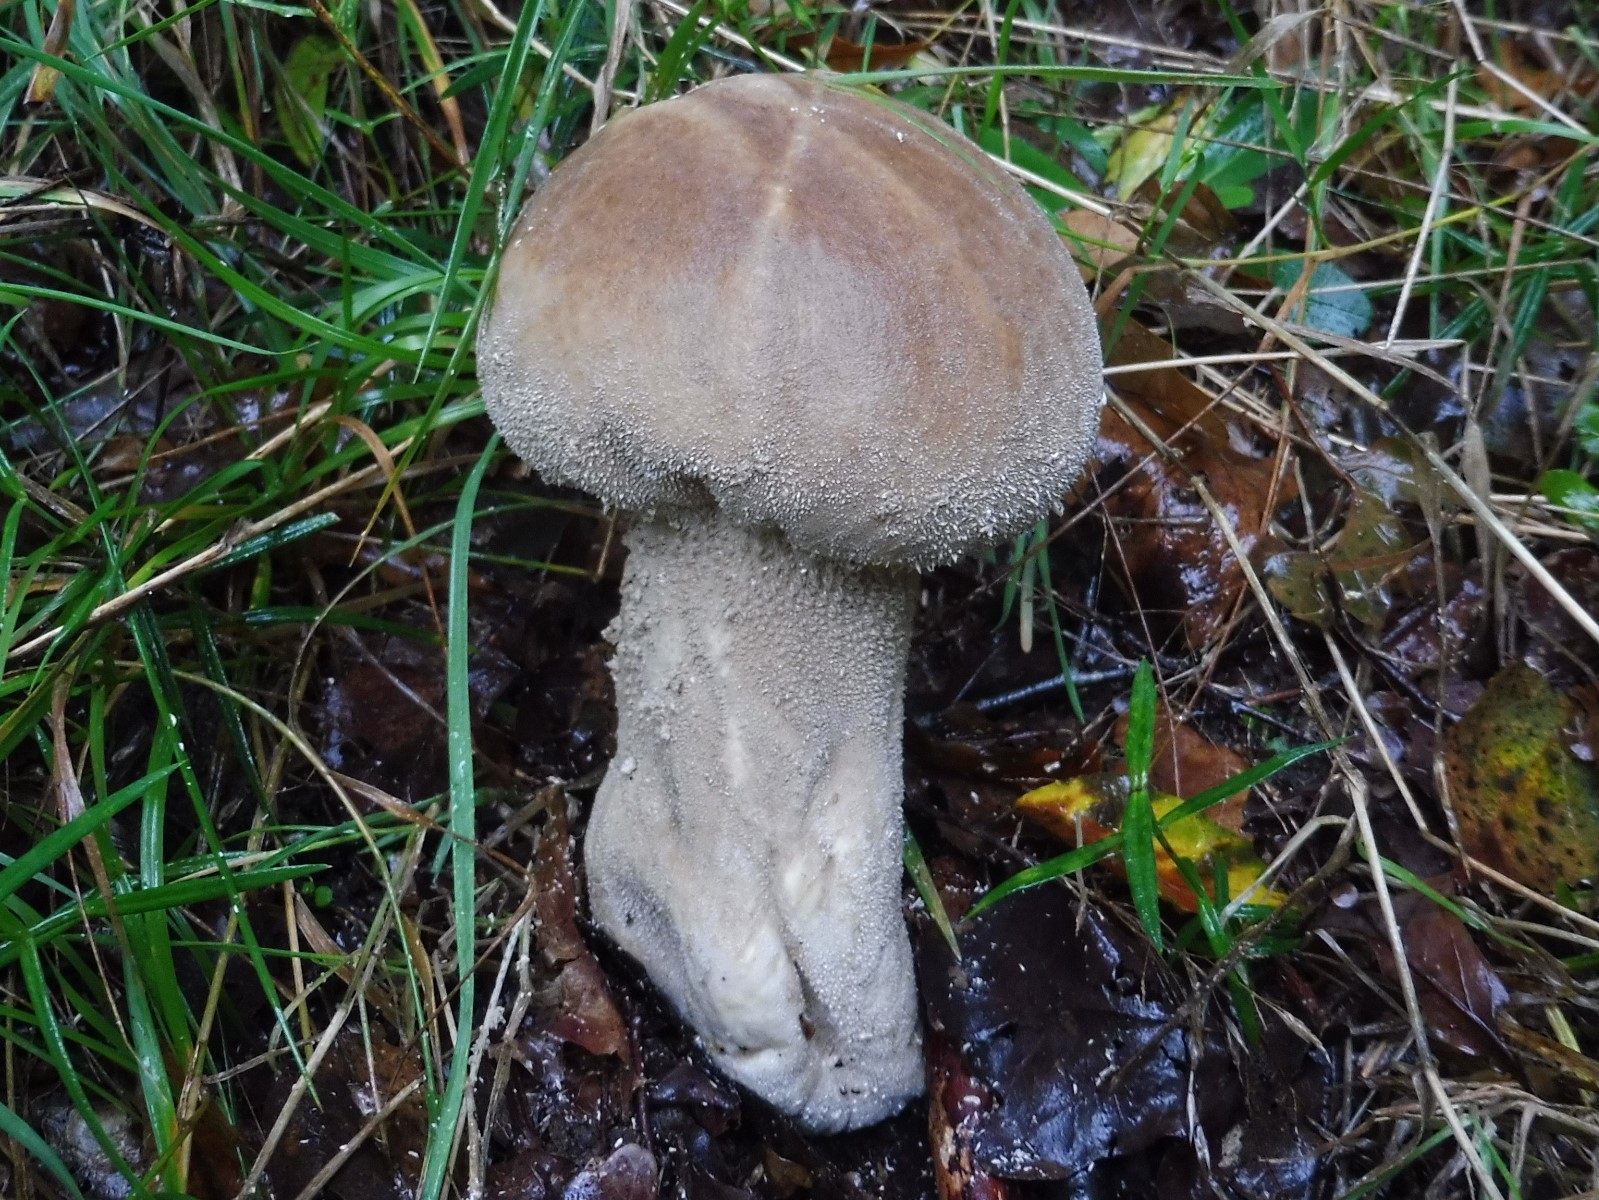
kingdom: Fungi
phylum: Basidiomycota
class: Agaricomycetes
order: Agaricales
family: Lycoperdaceae
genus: Lycoperdon
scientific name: Lycoperdon excipuliforme
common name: højstokket støvbold
